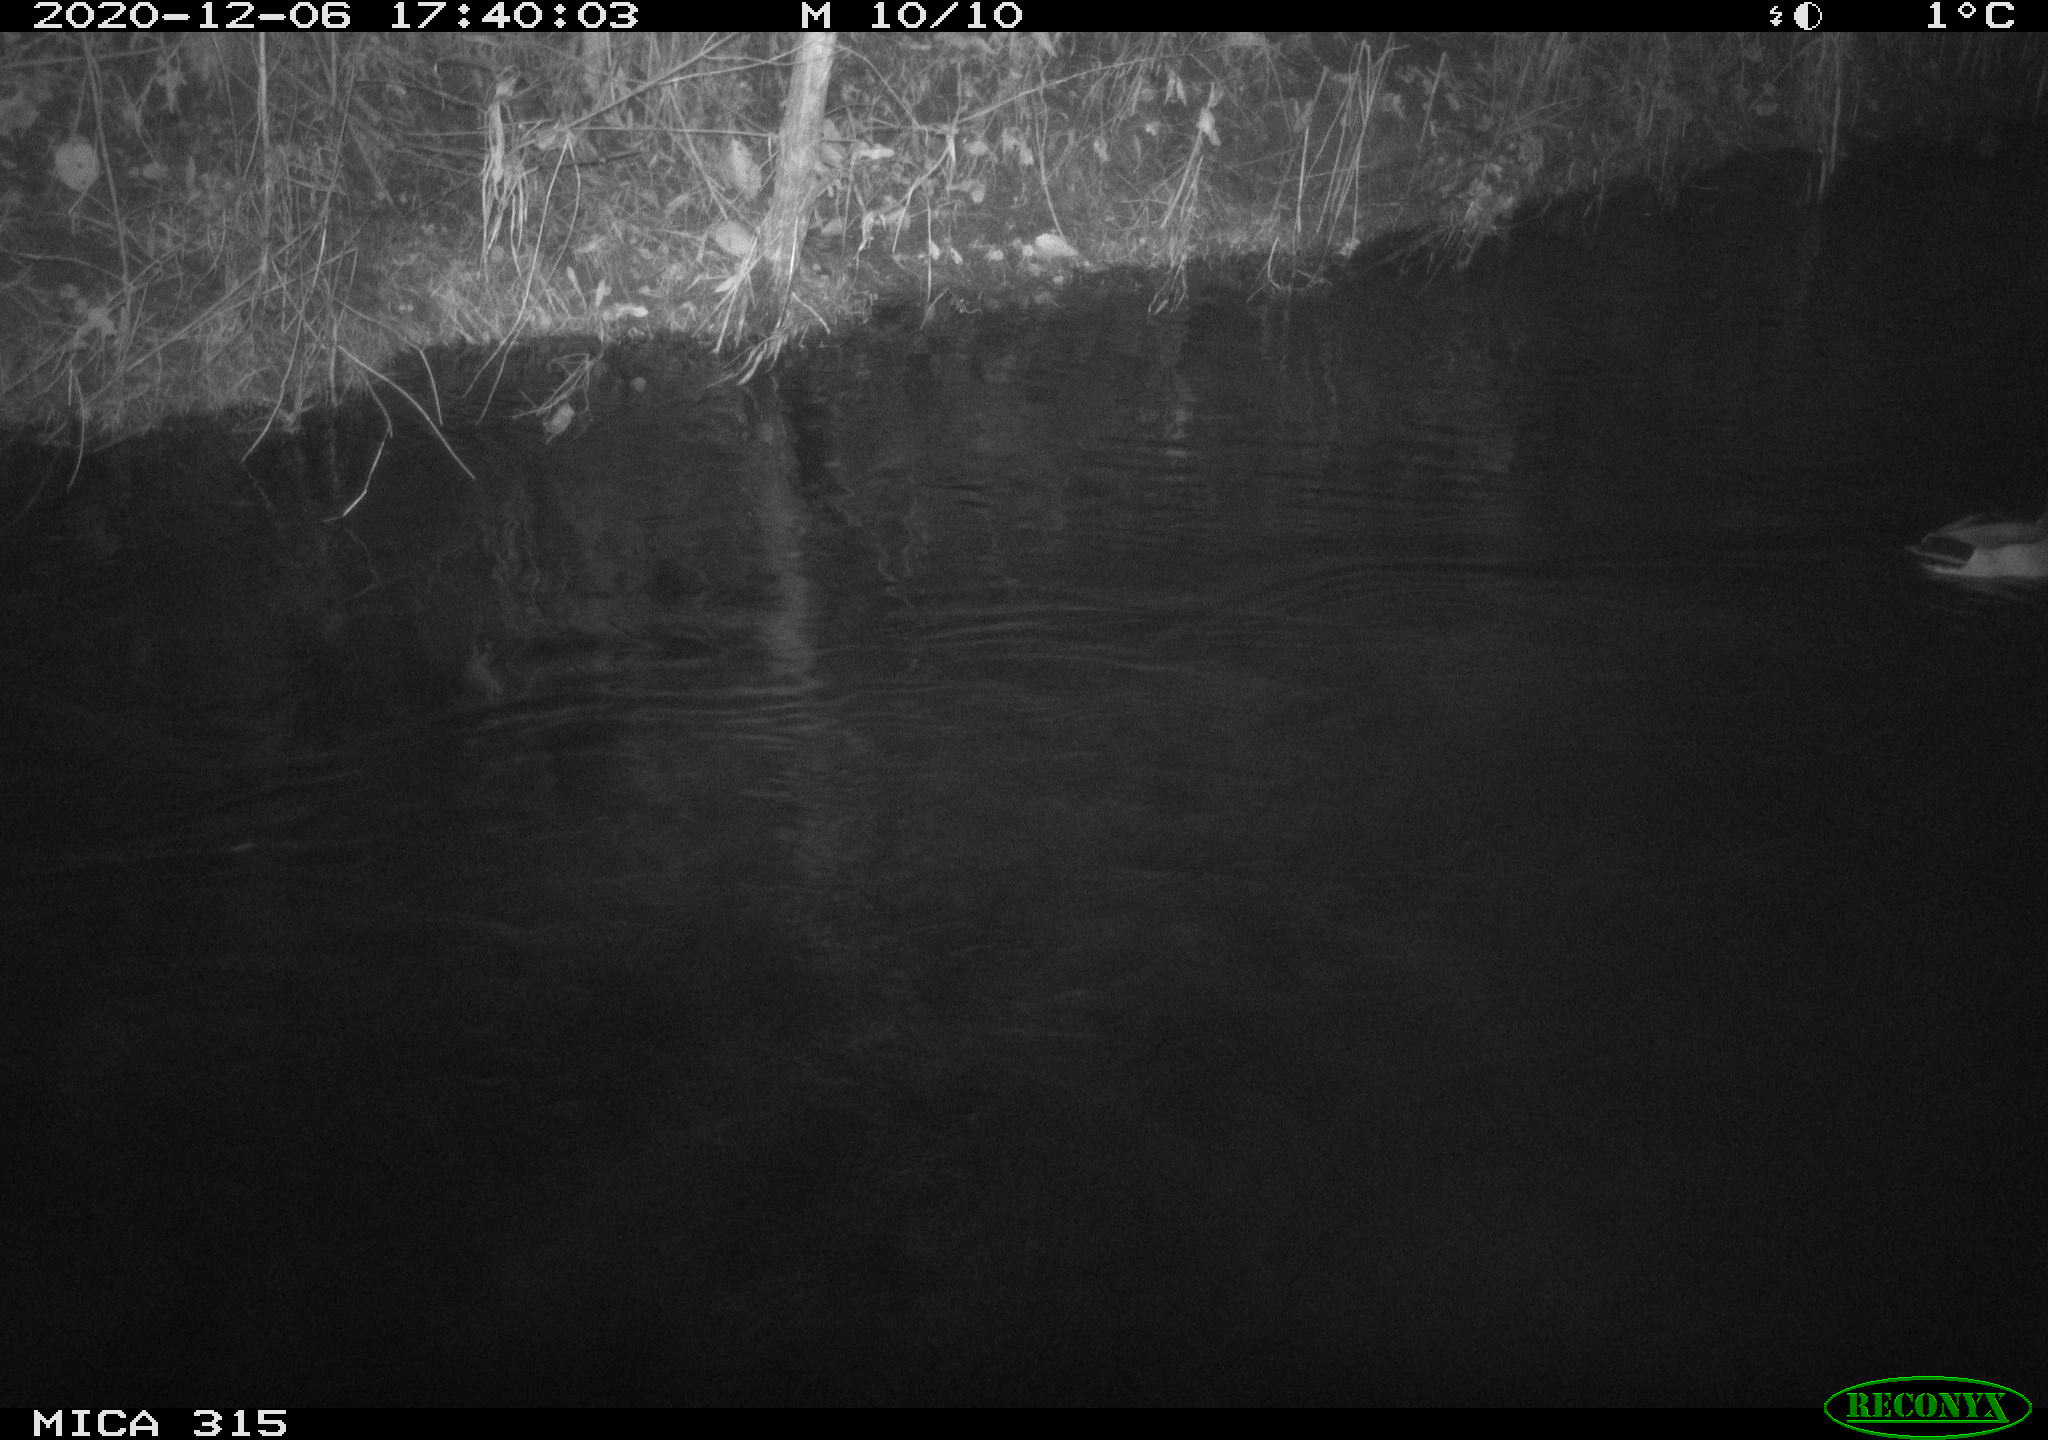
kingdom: Animalia
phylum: Chordata
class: Aves
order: Anseriformes
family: Anatidae
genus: Anas
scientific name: Anas platyrhynchos
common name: Mallard
